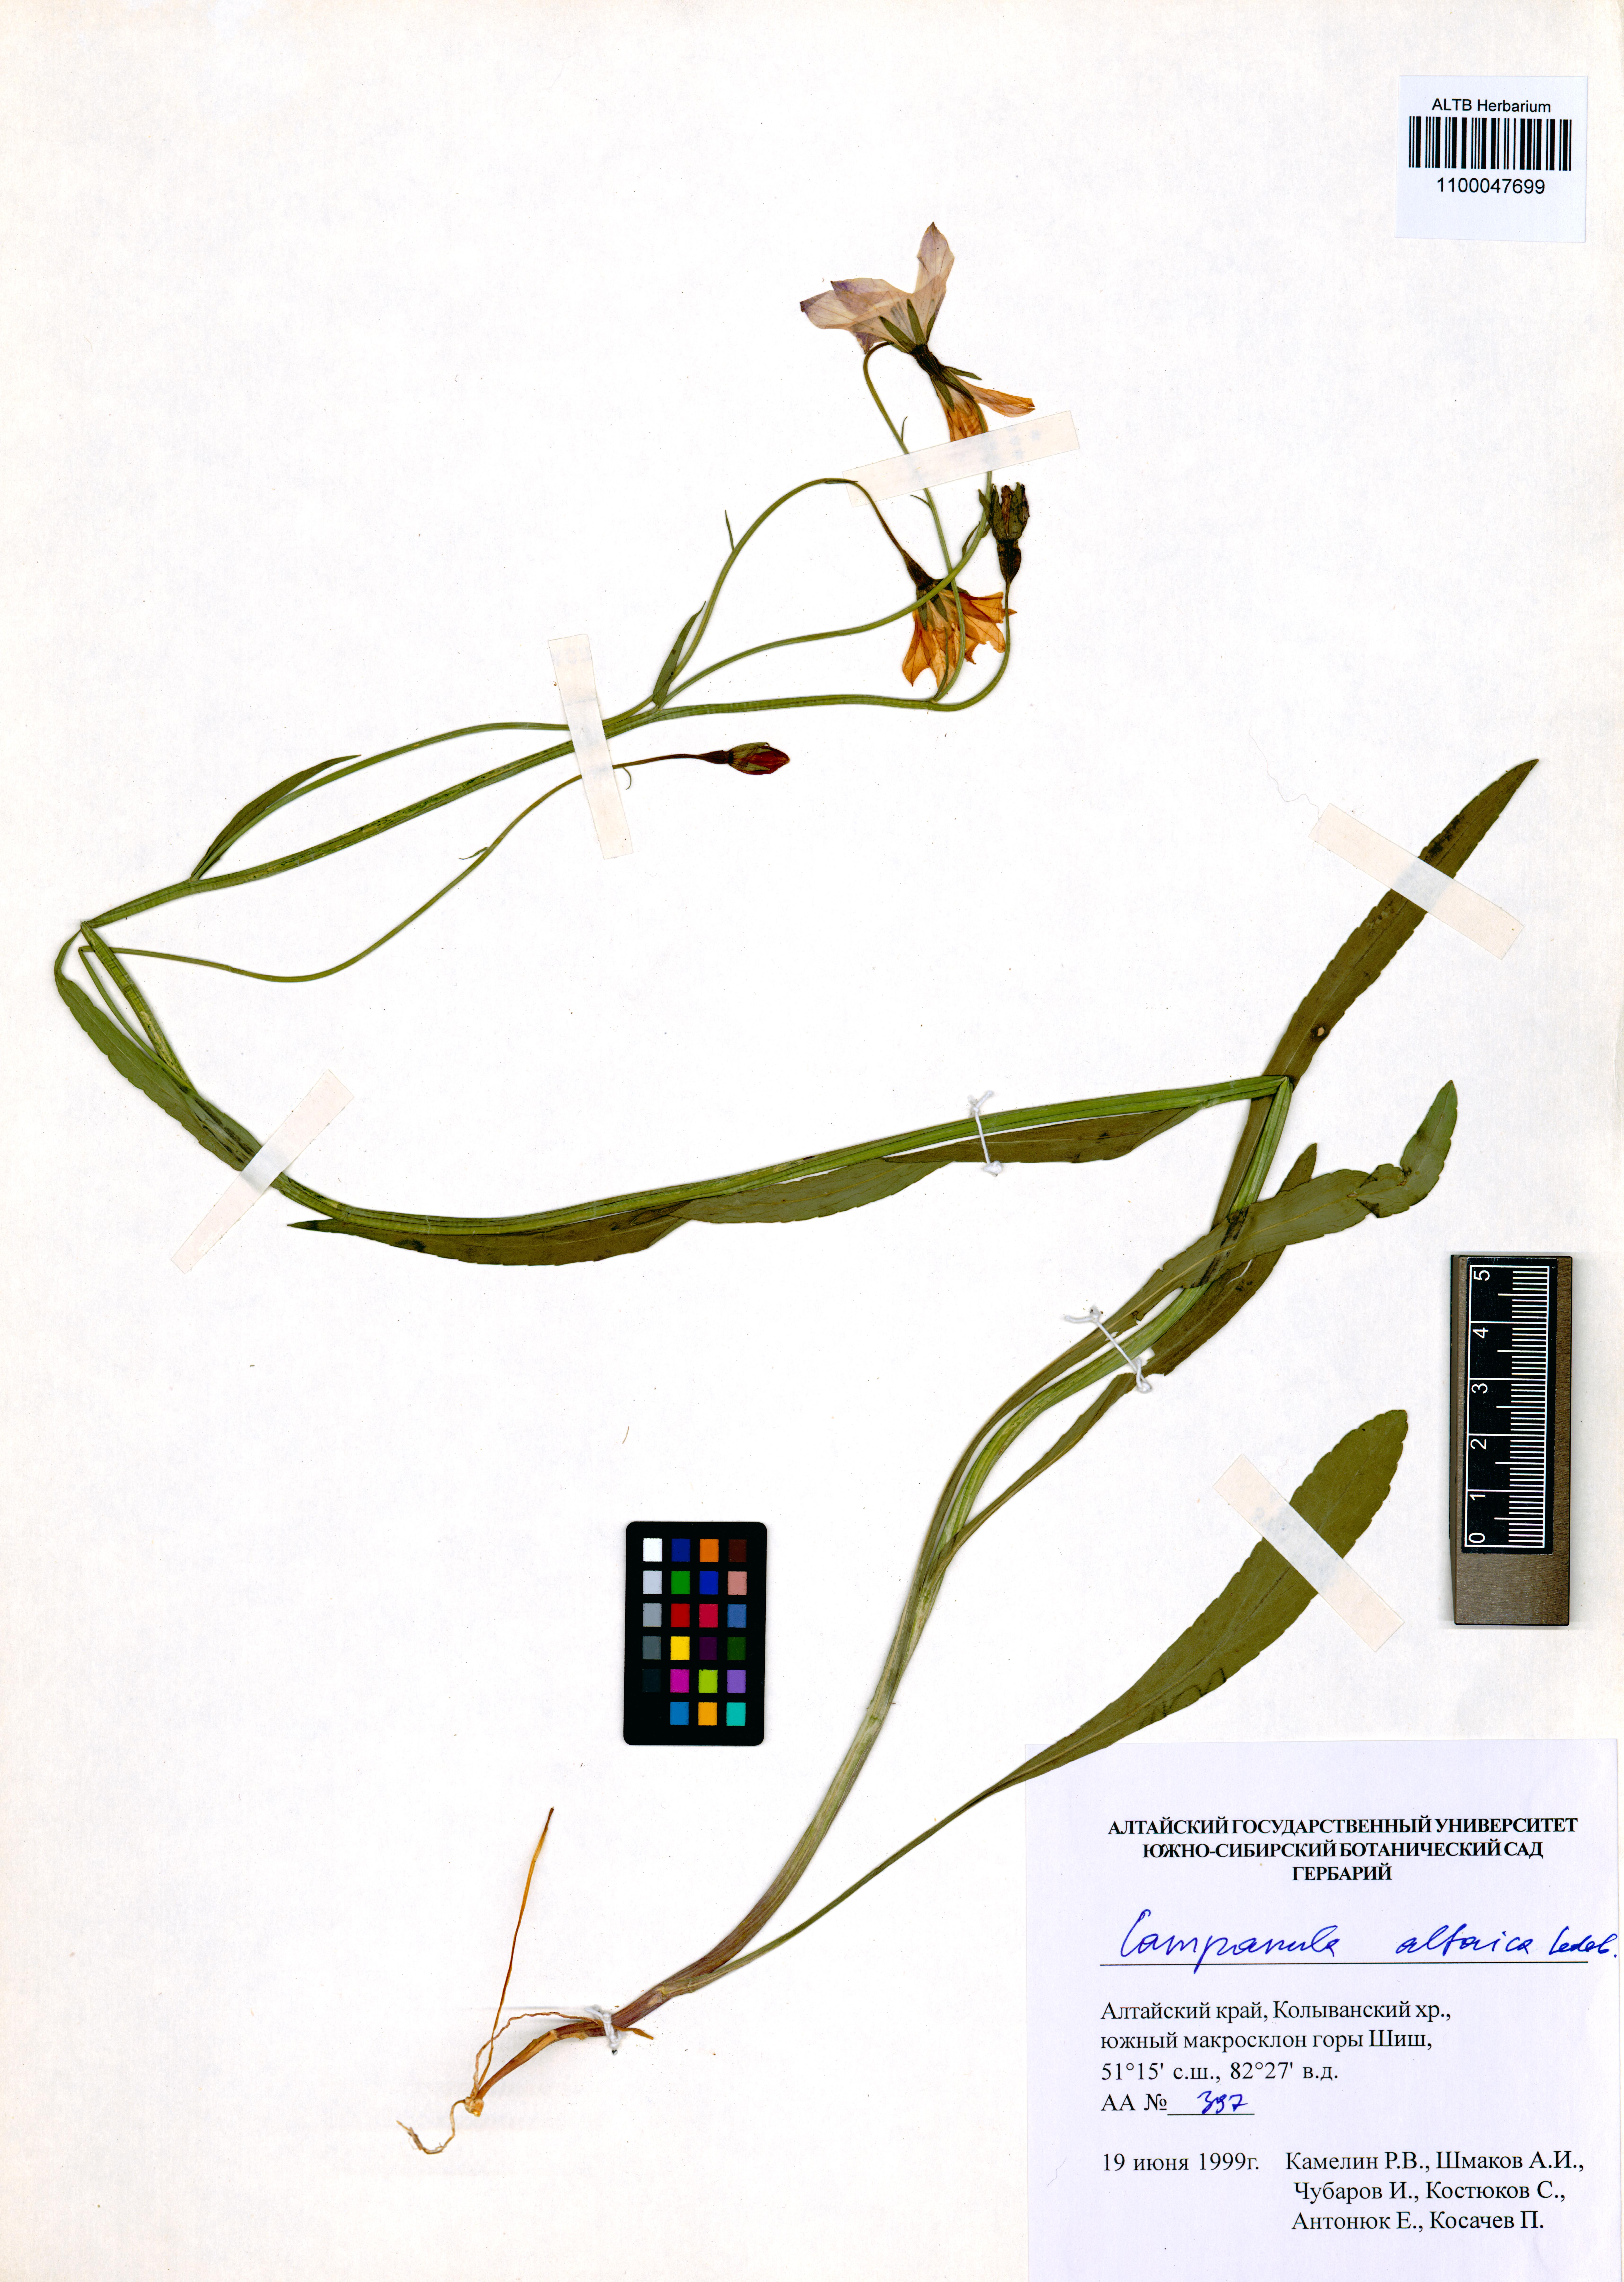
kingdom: Plantae
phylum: Tracheophyta
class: Magnoliopsida
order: Asterales
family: Campanulaceae
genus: Campanula
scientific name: Campanula stevenii
